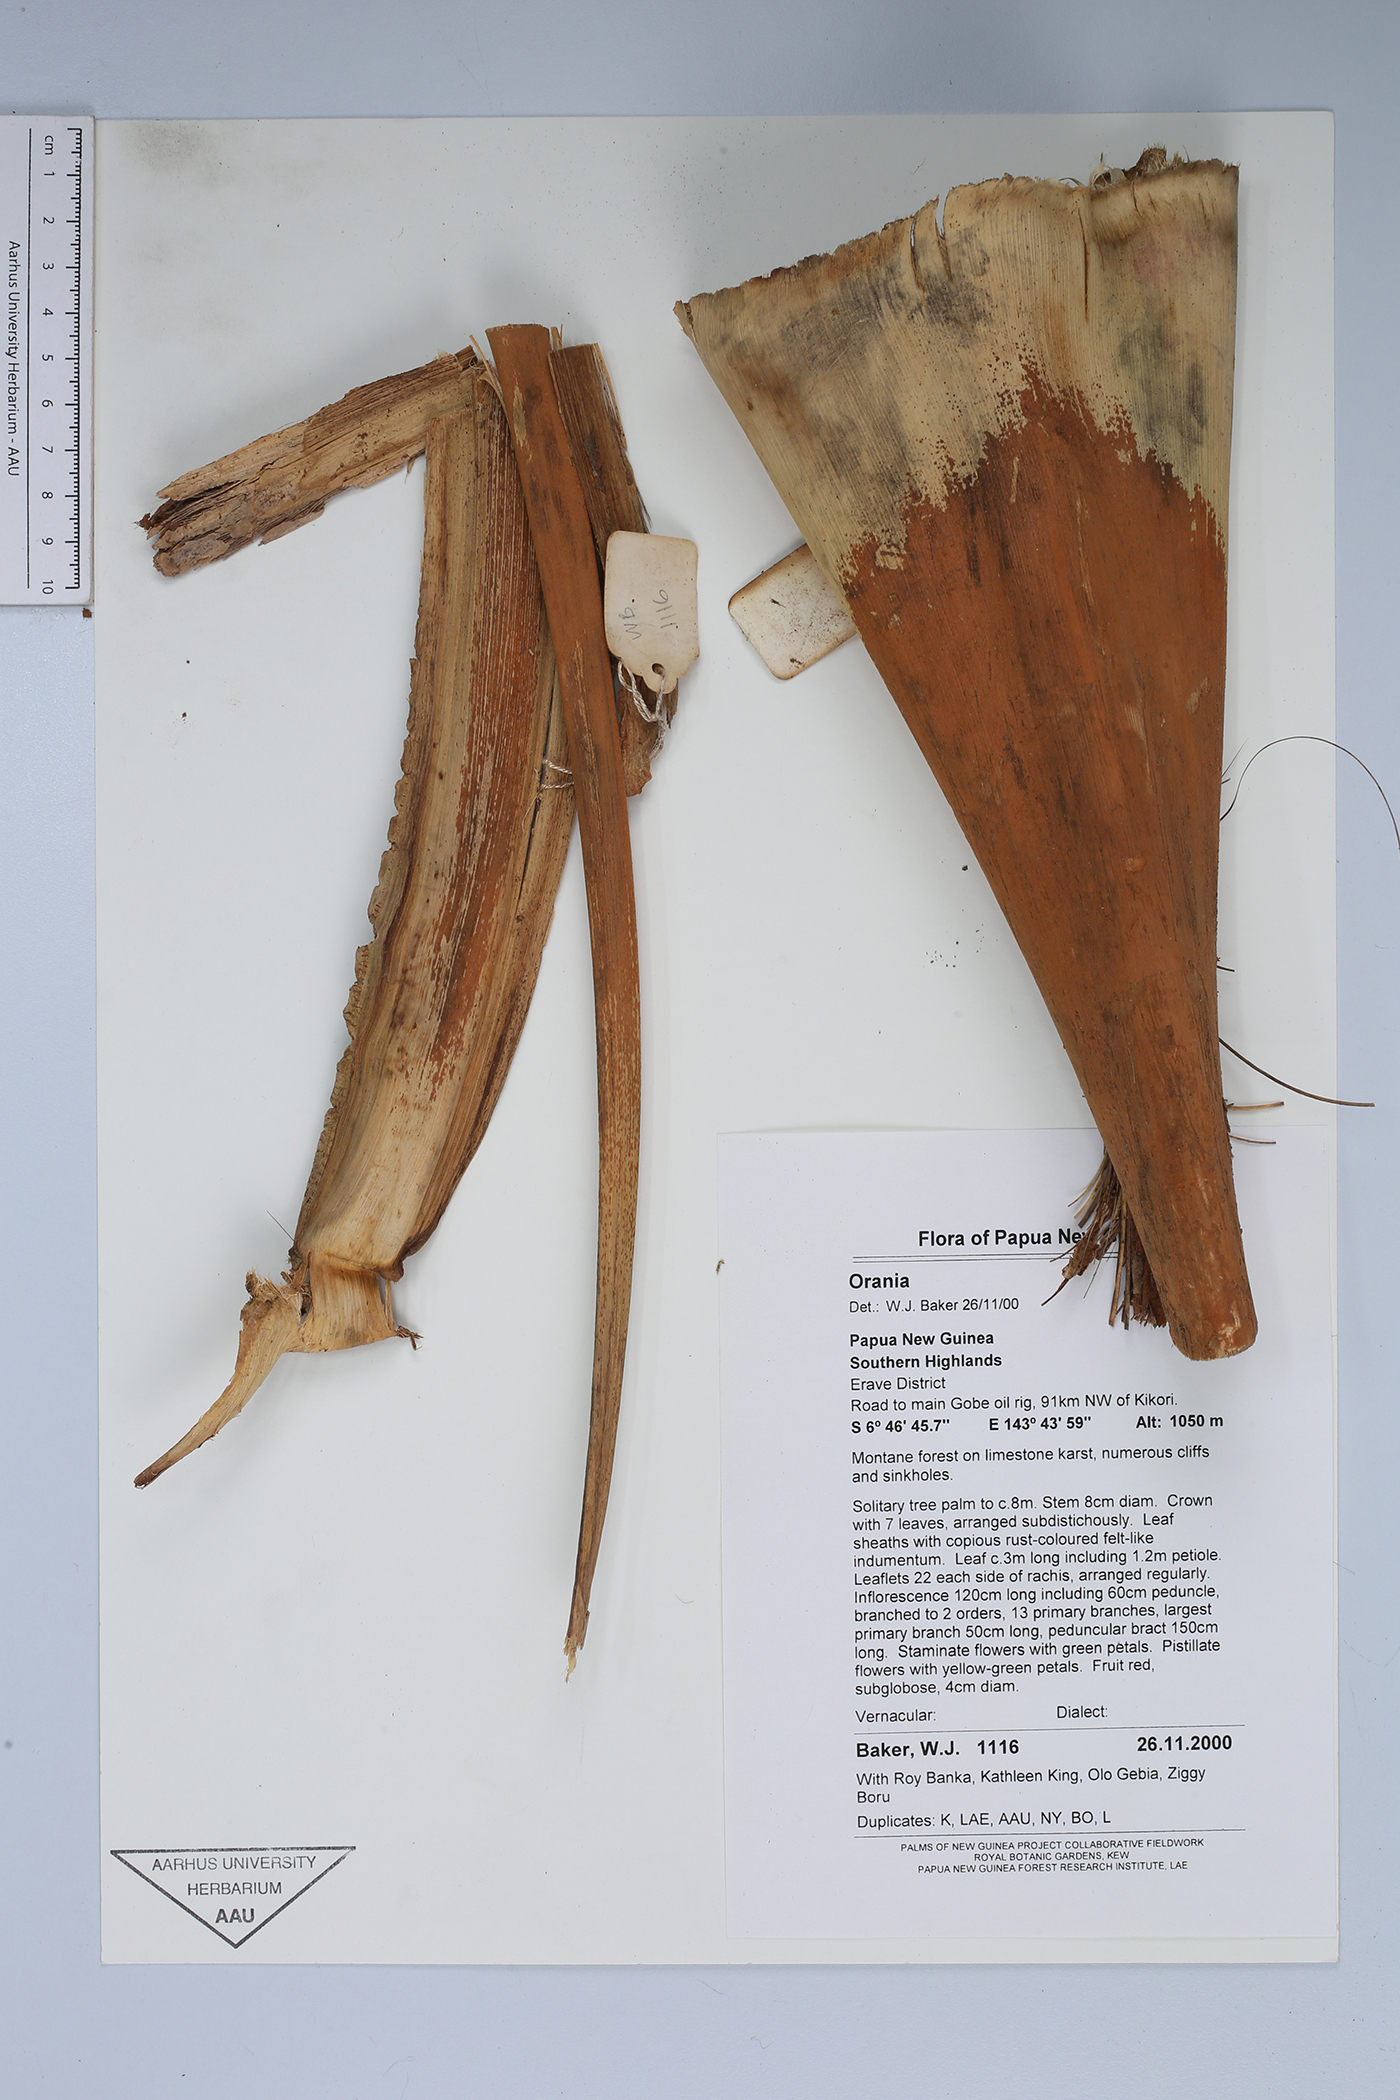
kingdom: Plantae
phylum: Tracheophyta
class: Liliopsida
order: Arecales
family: Arecaceae
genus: Orania
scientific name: Orania
